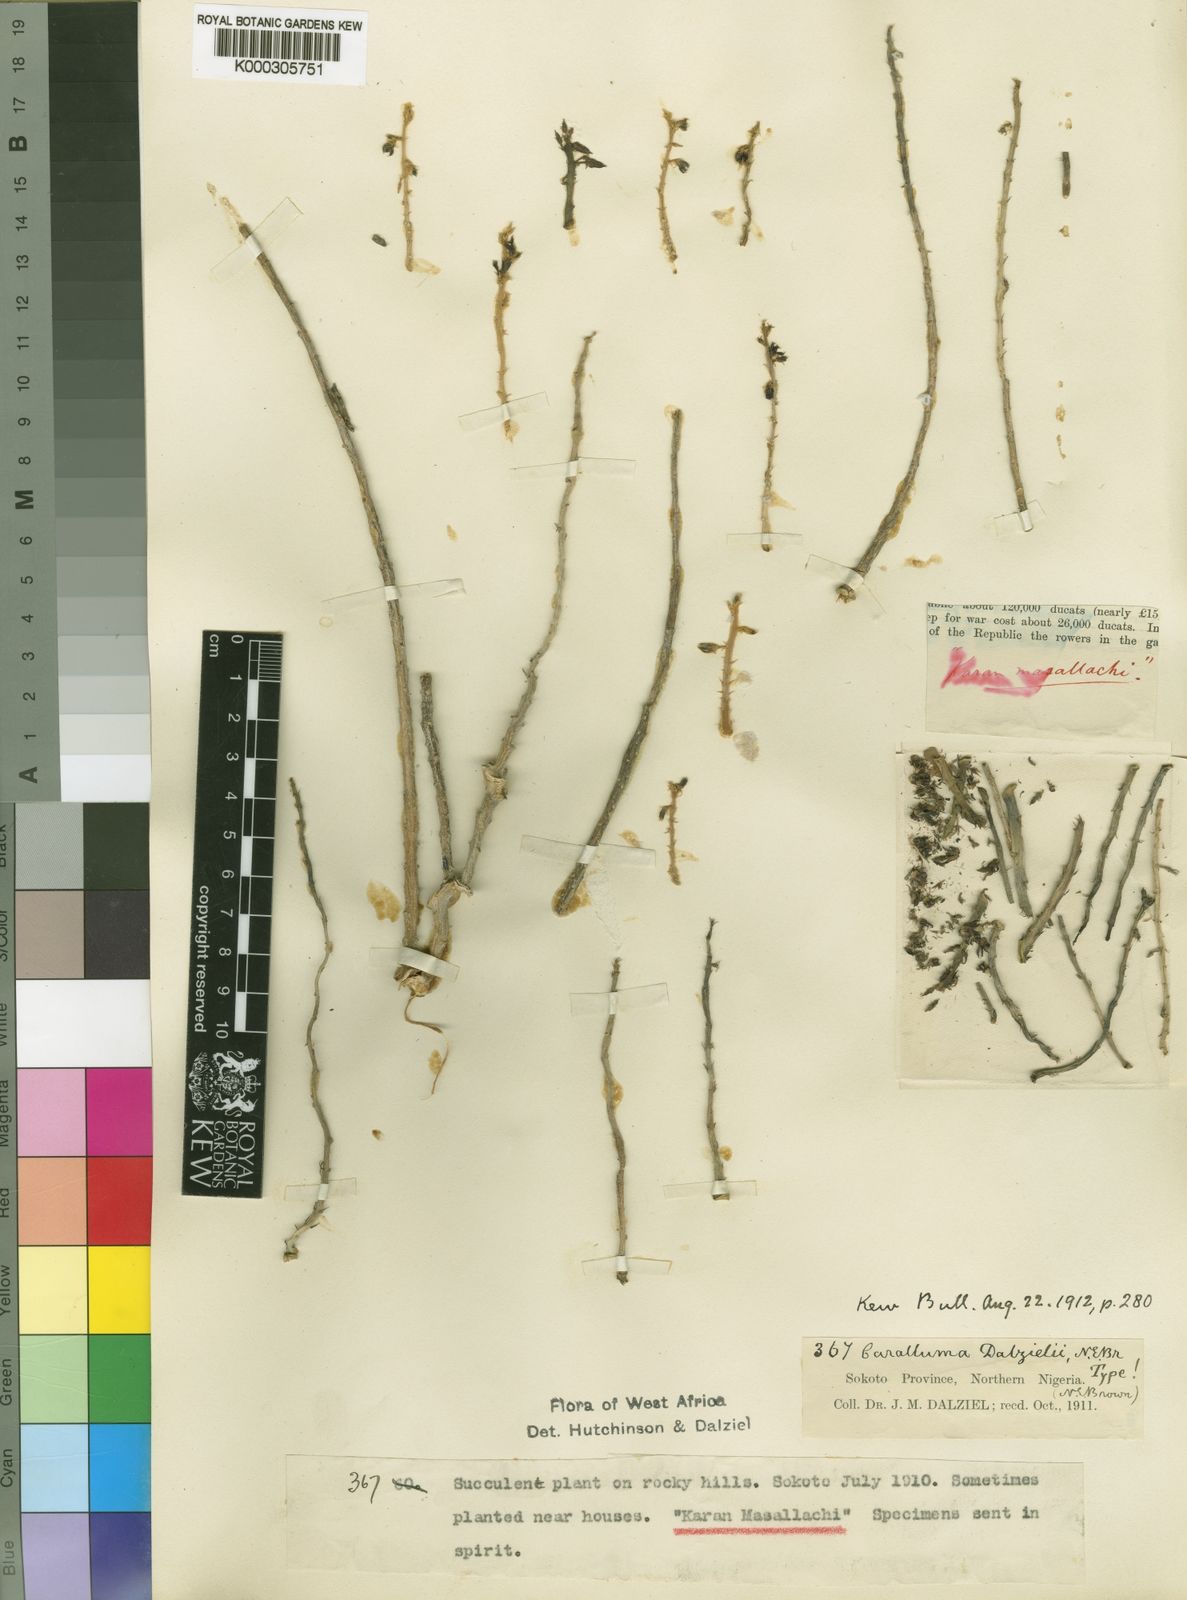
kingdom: Plantae
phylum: Tracheophyta
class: Magnoliopsida
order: Gentianales
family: Apocynaceae
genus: Ceropegia
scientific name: Ceropegia sudanica
